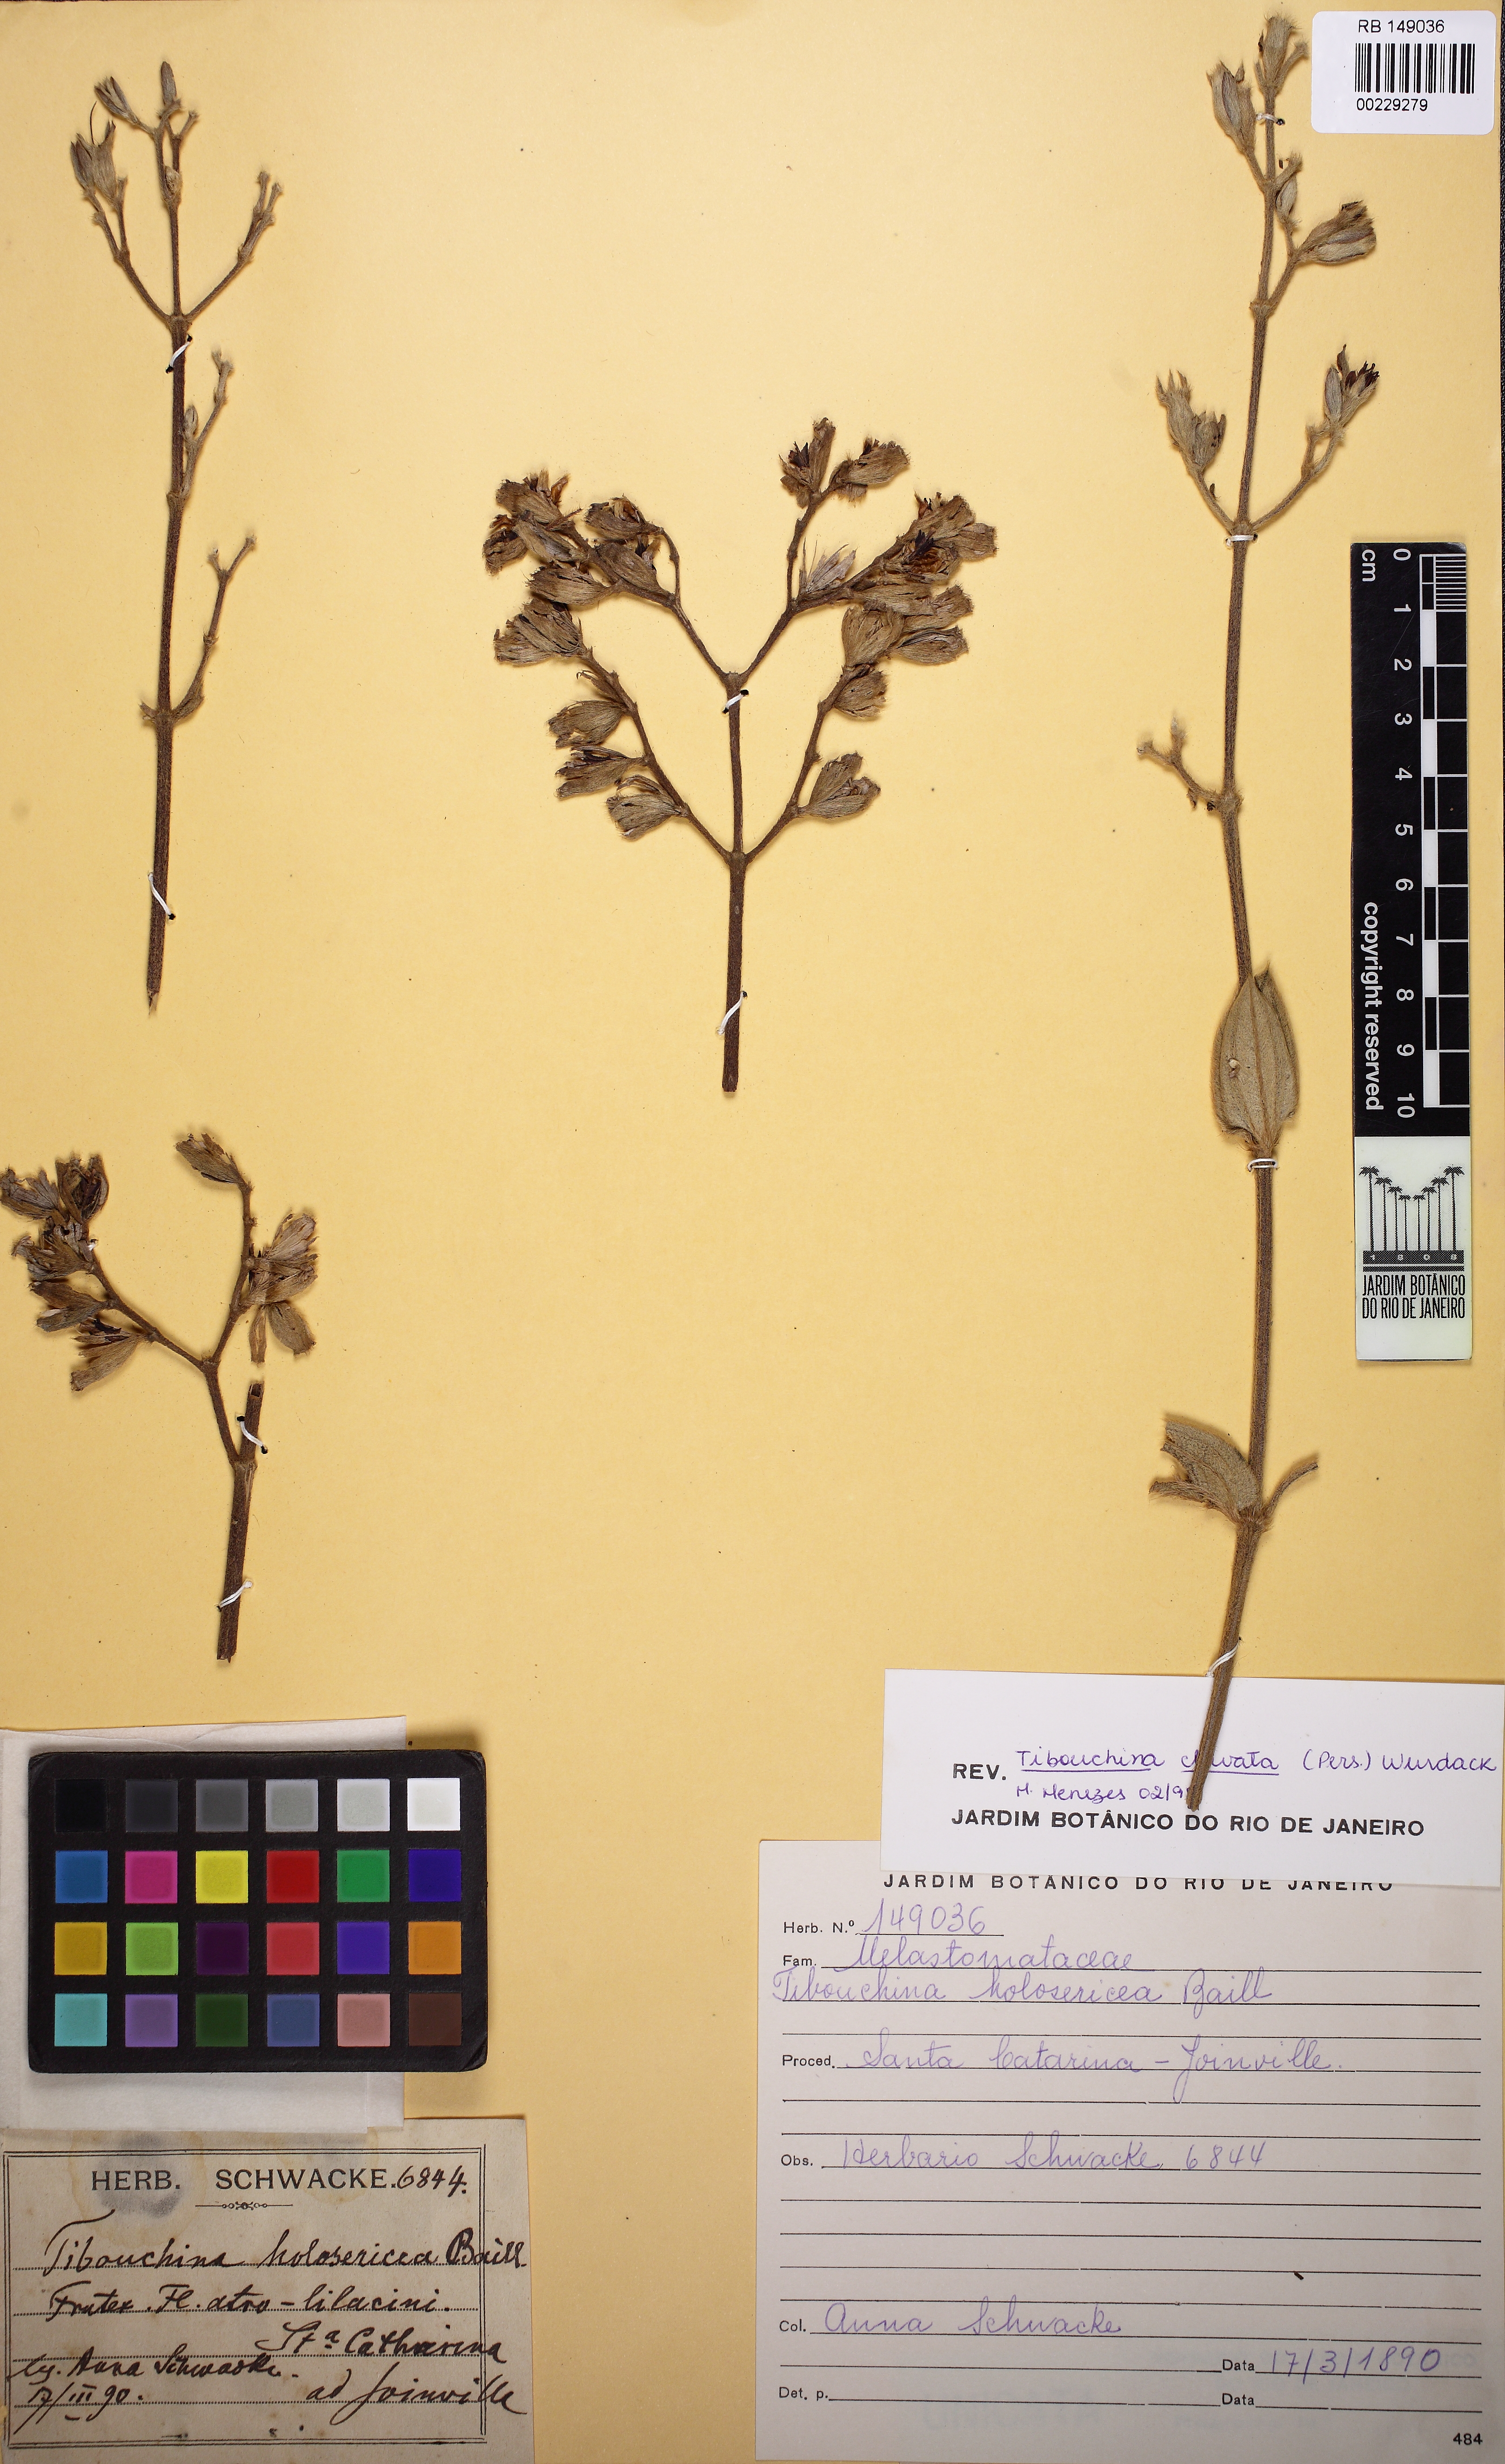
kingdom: Plantae
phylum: Tracheophyta
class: Magnoliopsida
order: Myrtales
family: Melastomataceae
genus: Chaetogastra
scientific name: Chaetogastra kingii
